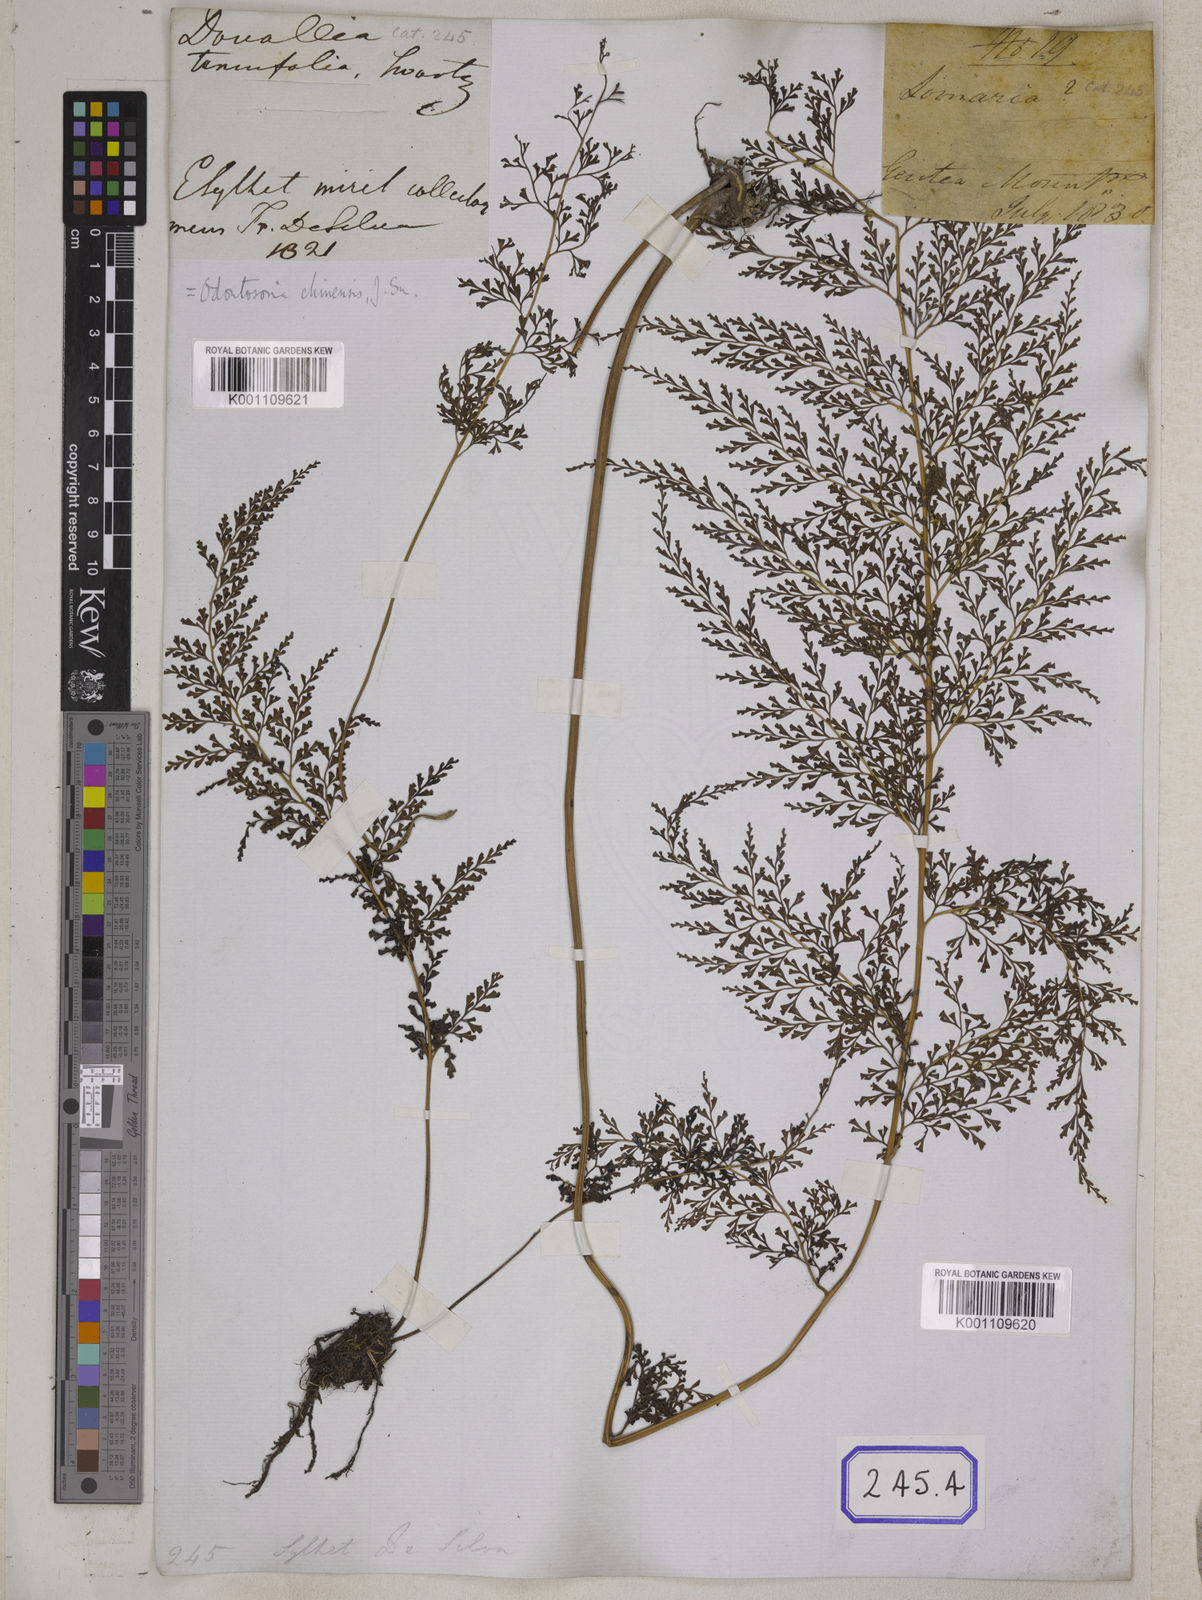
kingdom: Plantae
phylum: Tracheophyta
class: Polypodiopsida
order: Polypodiales
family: Lindsaeaceae
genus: Odontosoria
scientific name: Odontosoria chinensis
